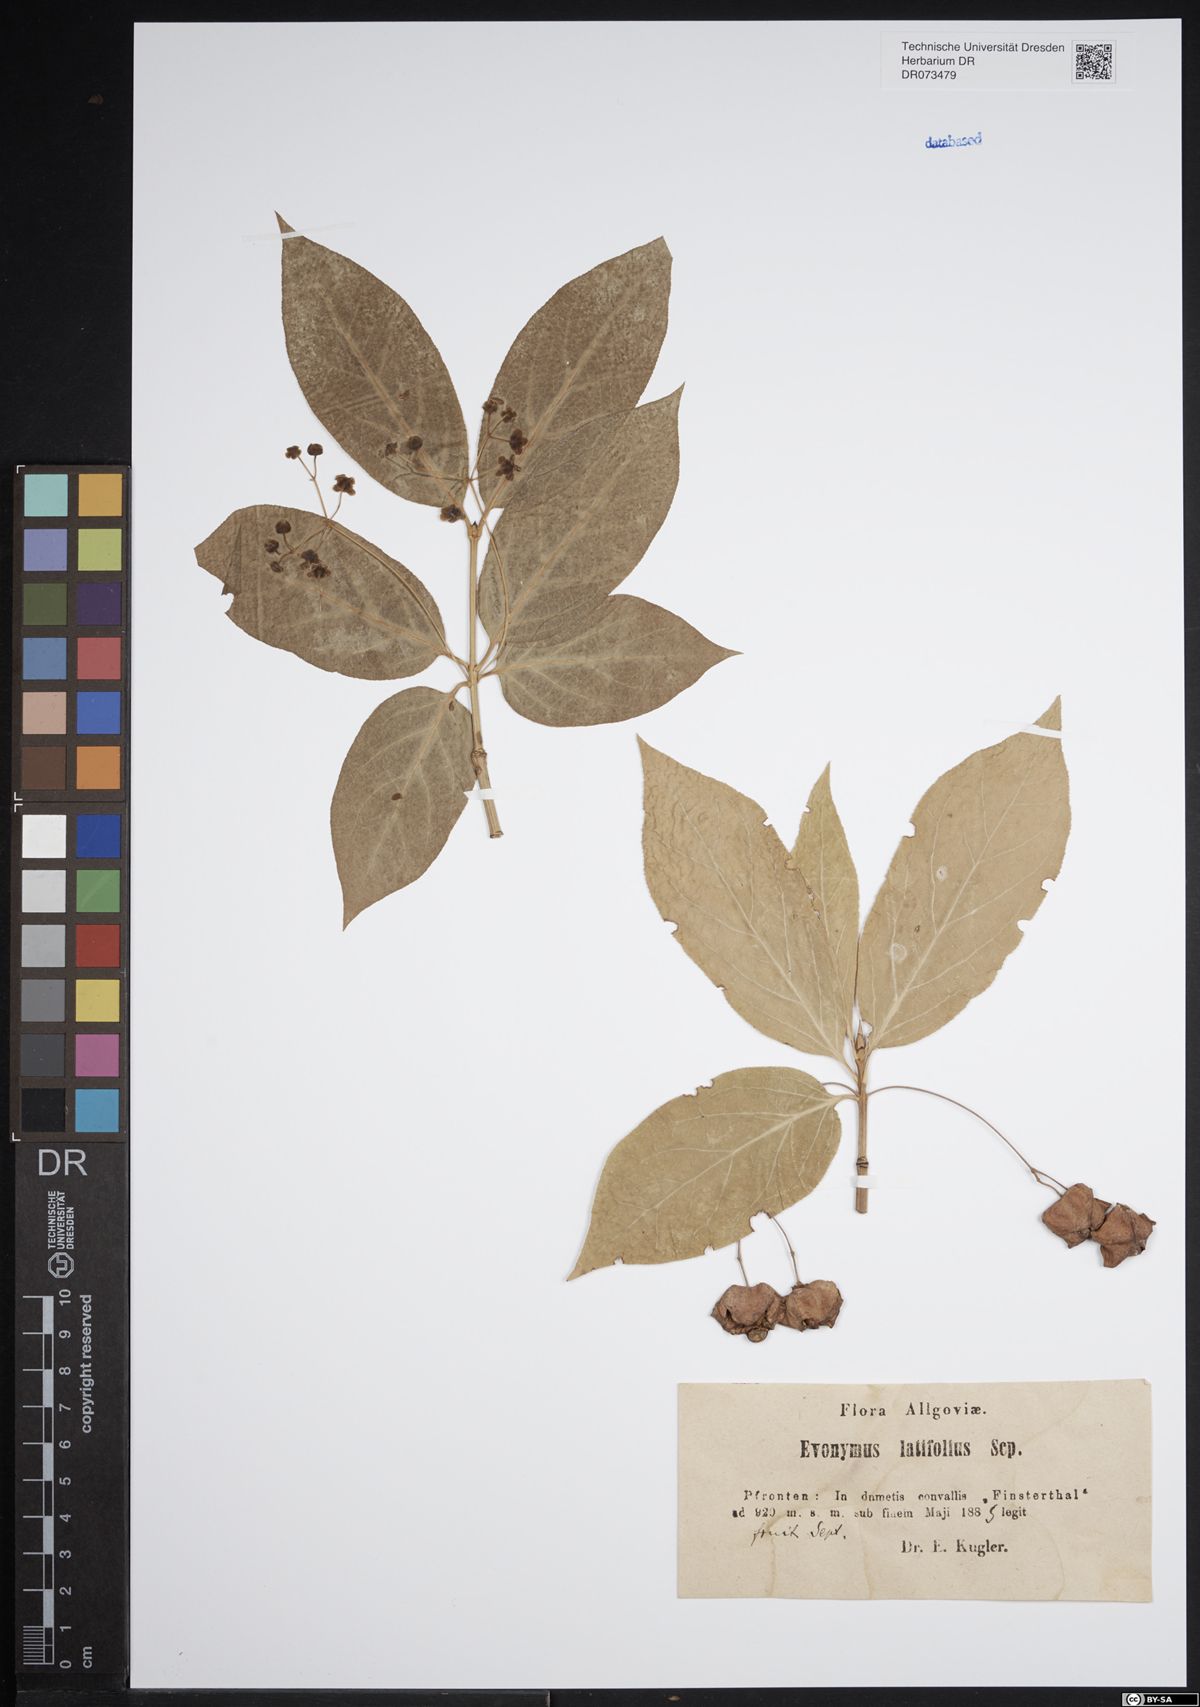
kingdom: Plantae
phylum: Tracheophyta
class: Magnoliopsida
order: Celastrales
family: Celastraceae
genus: Euonymus
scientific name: Euonymus latifolius
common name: Large-leaved spindle
